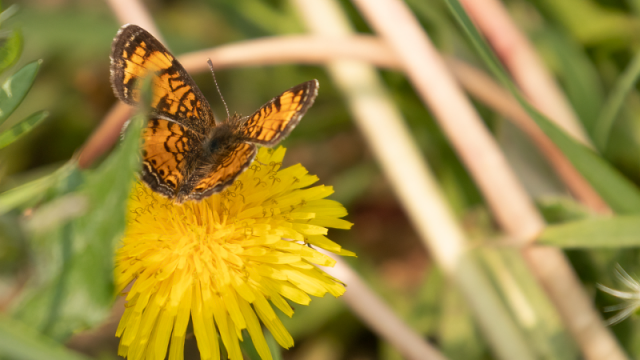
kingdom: Animalia
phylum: Arthropoda
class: Insecta
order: Lepidoptera
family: Nymphalidae
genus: Phyciodes
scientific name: Phyciodes tharos
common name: Northern Crescent
